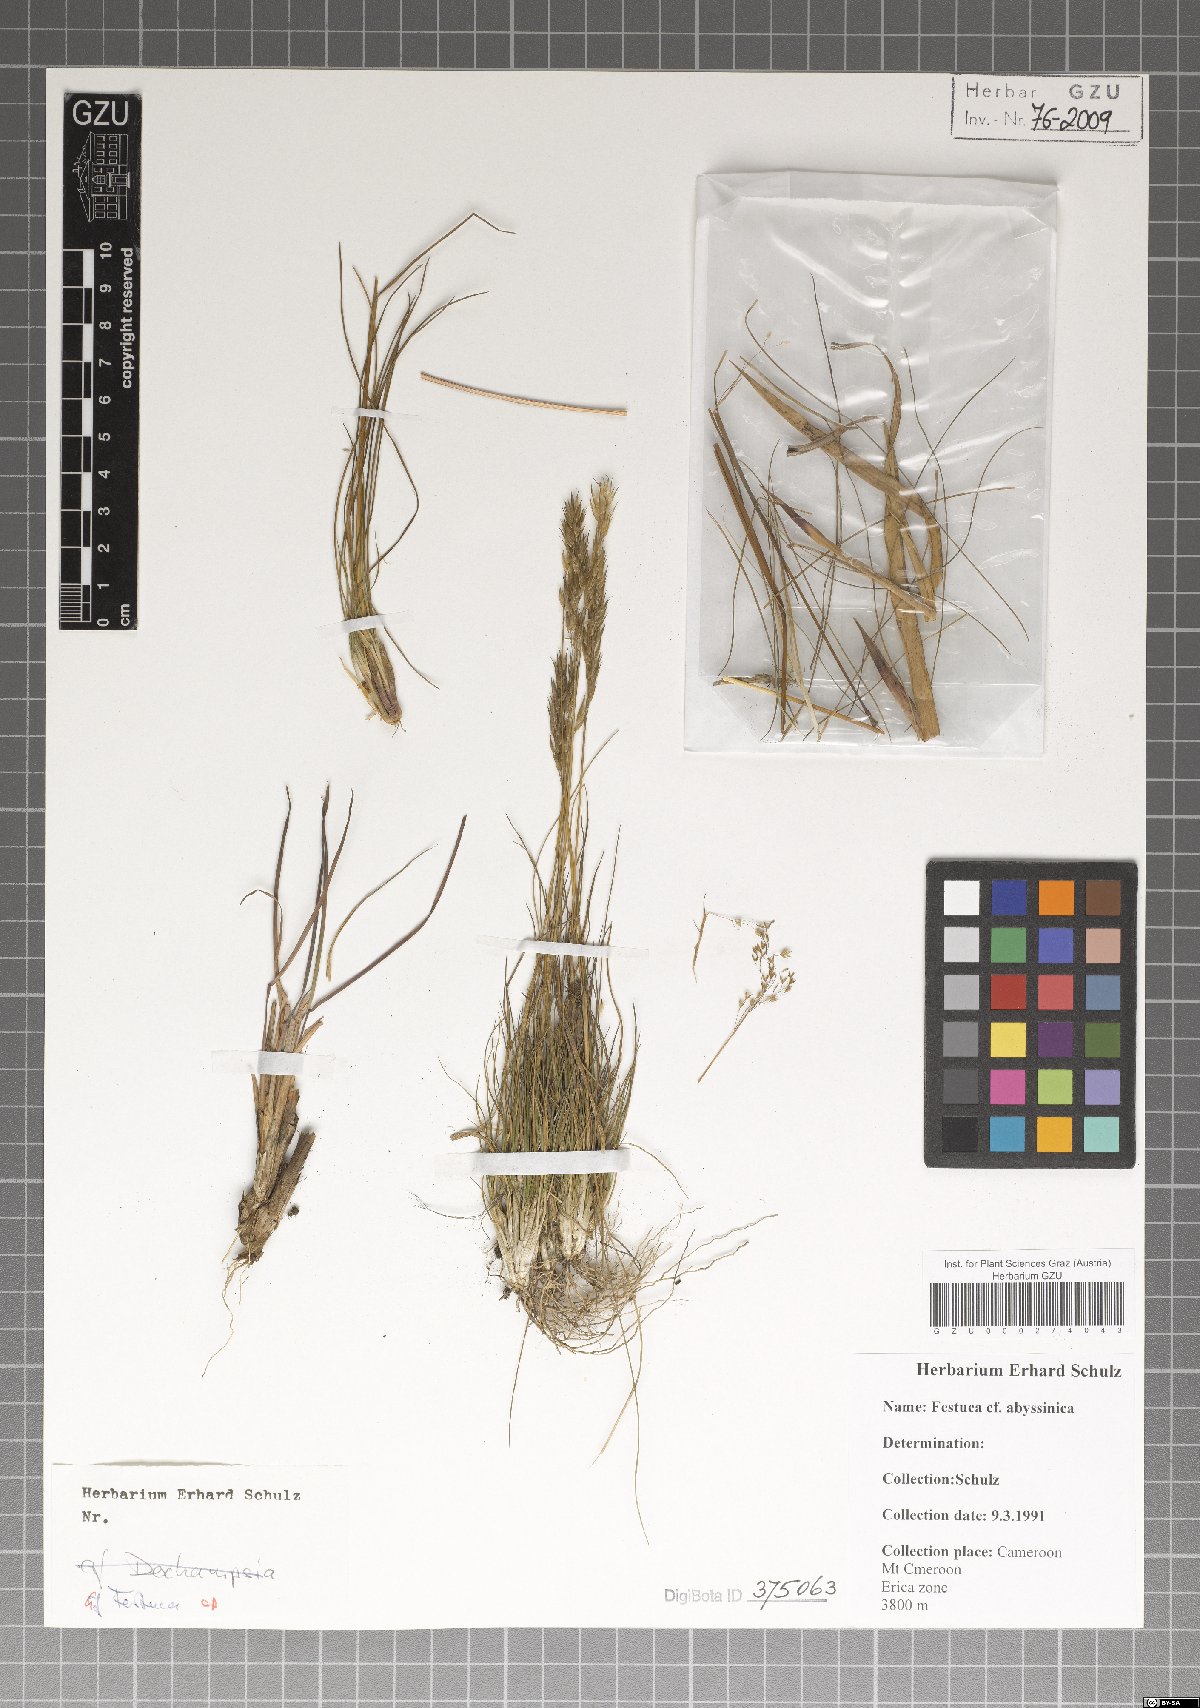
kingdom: Plantae
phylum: Tracheophyta
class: Liliopsida
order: Poales
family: Poaceae
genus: Festuca
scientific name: Festuca abyssinica
